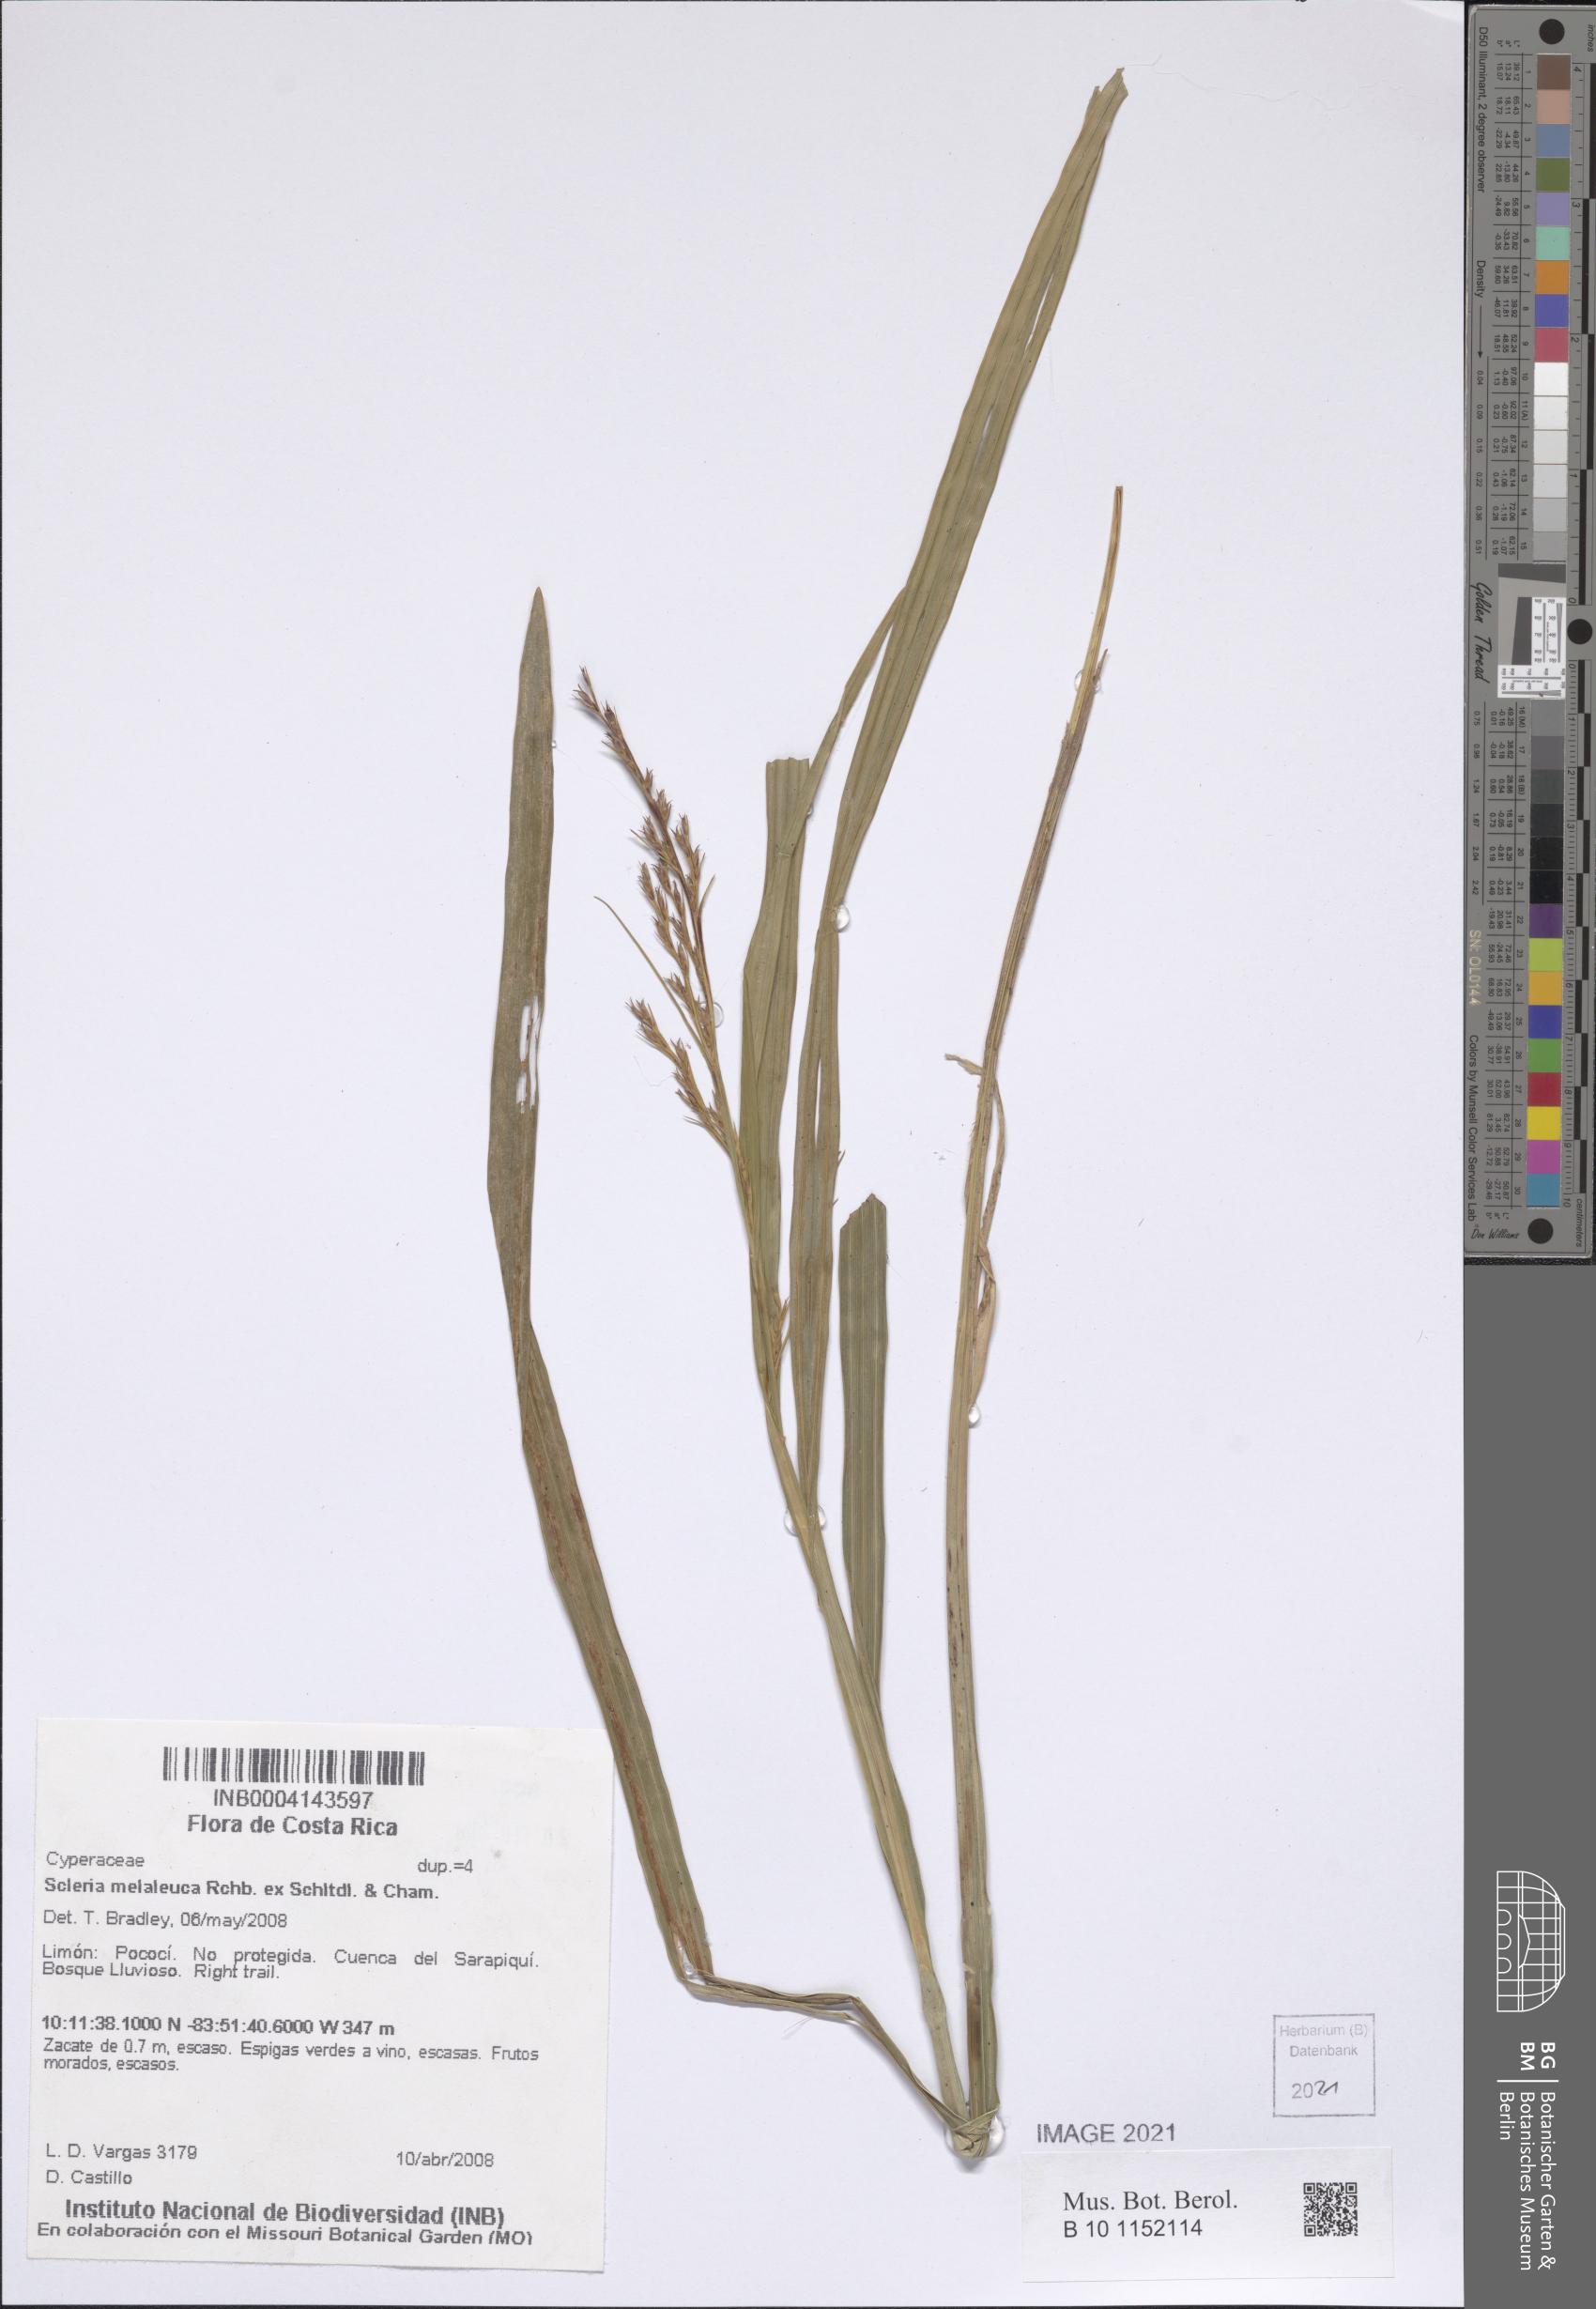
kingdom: Plantae
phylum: Tracheophyta
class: Liliopsida
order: Poales
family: Cyperaceae
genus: Scleria
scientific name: Scleria gaertneri
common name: Cortadera blanca
